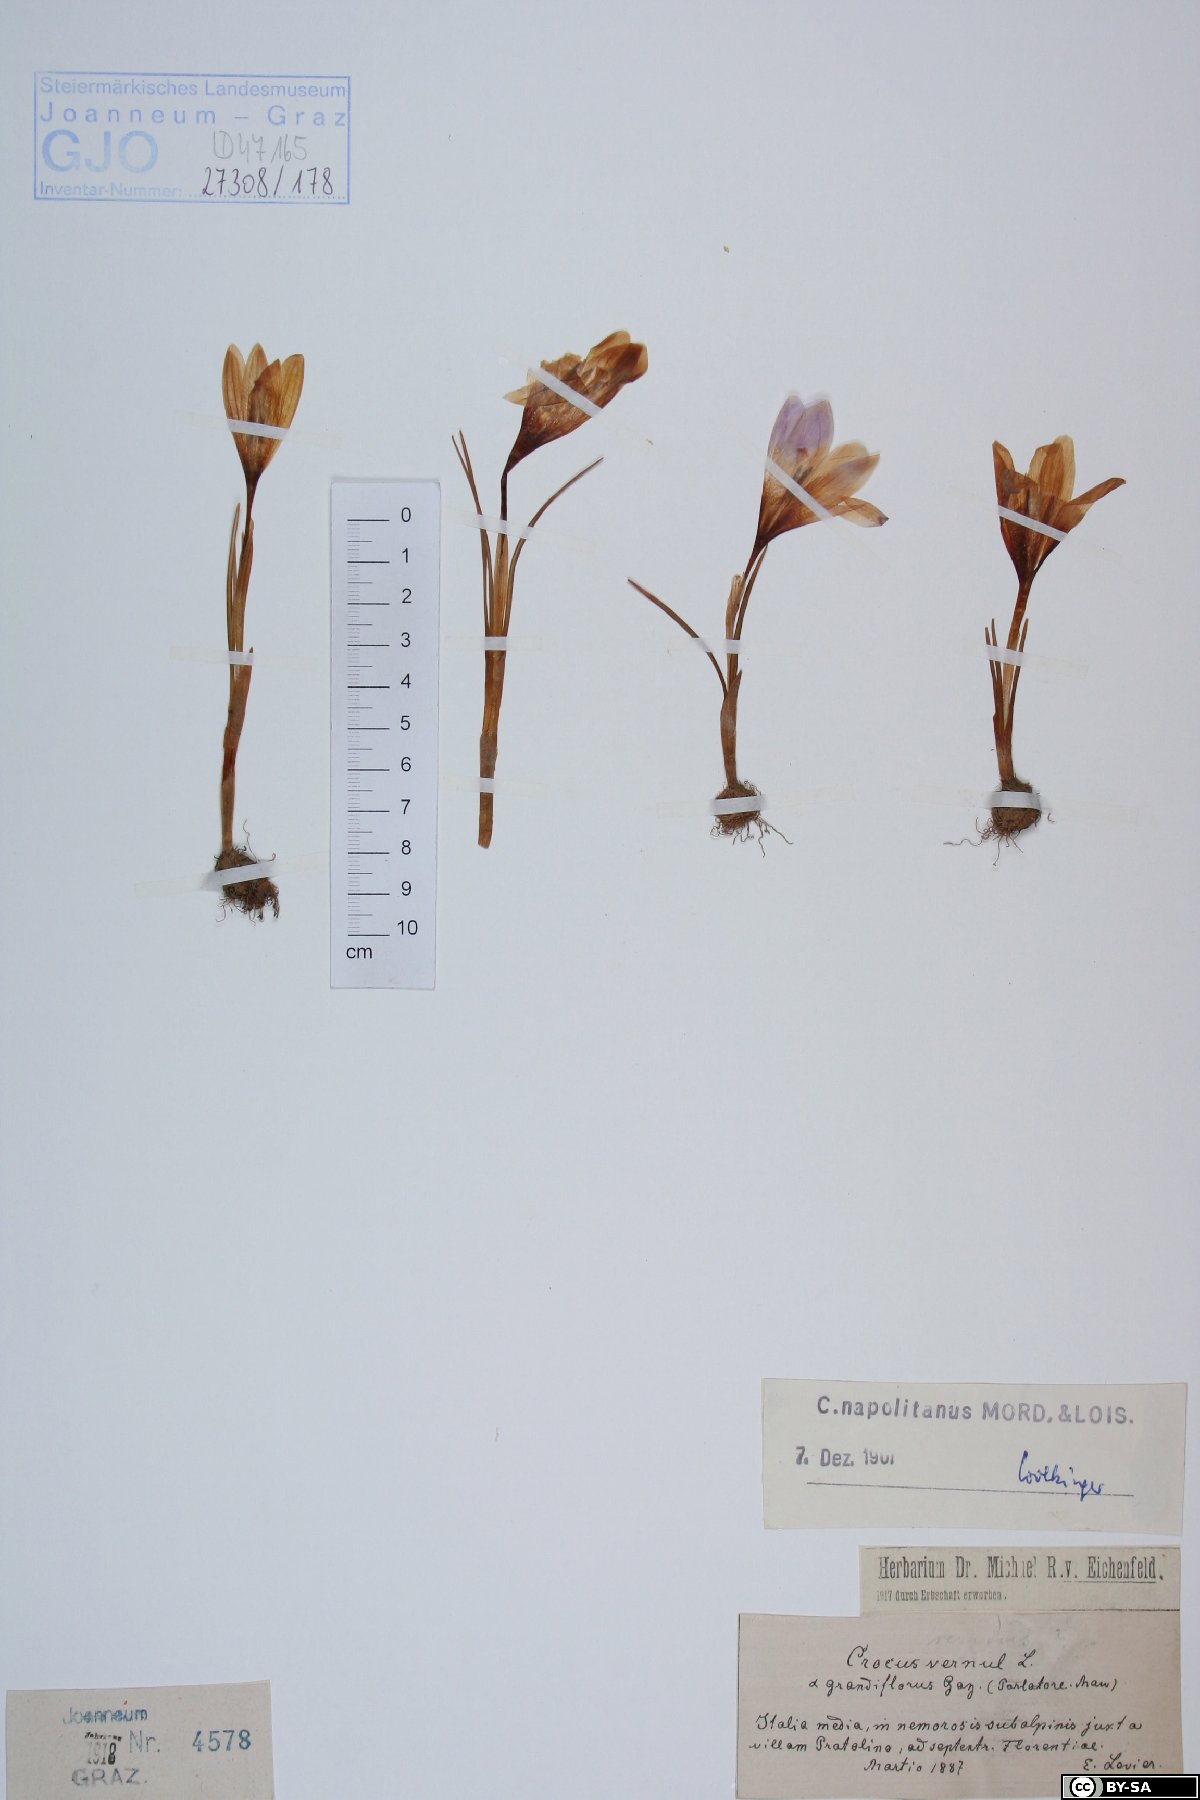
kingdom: Plantae
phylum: Tracheophyta
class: Liliopsida
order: Asparagales
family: Iridaceae
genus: Crocus
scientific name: Crocus vernus
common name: Spring crocus
